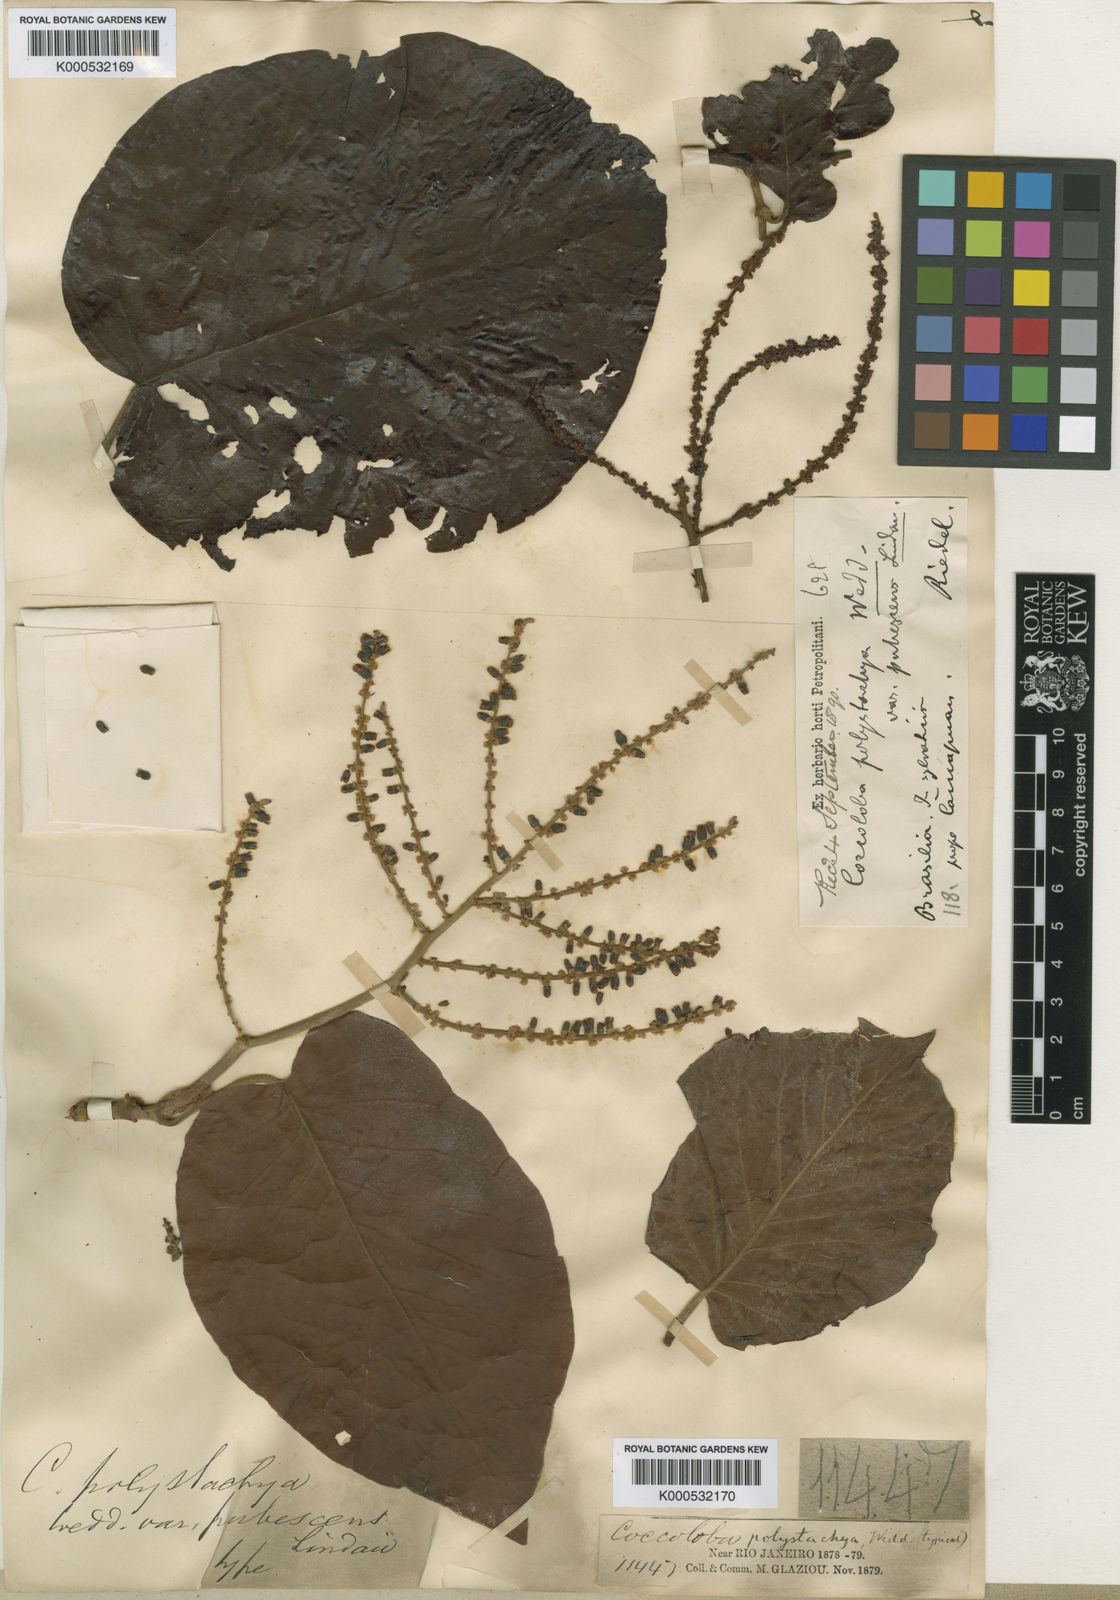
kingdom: Plantae
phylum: Tracheophyta
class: Magnoliopsida
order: Caryophyllales
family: Polygonaceae
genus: Coccoloba
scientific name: Coccoloba mollis
